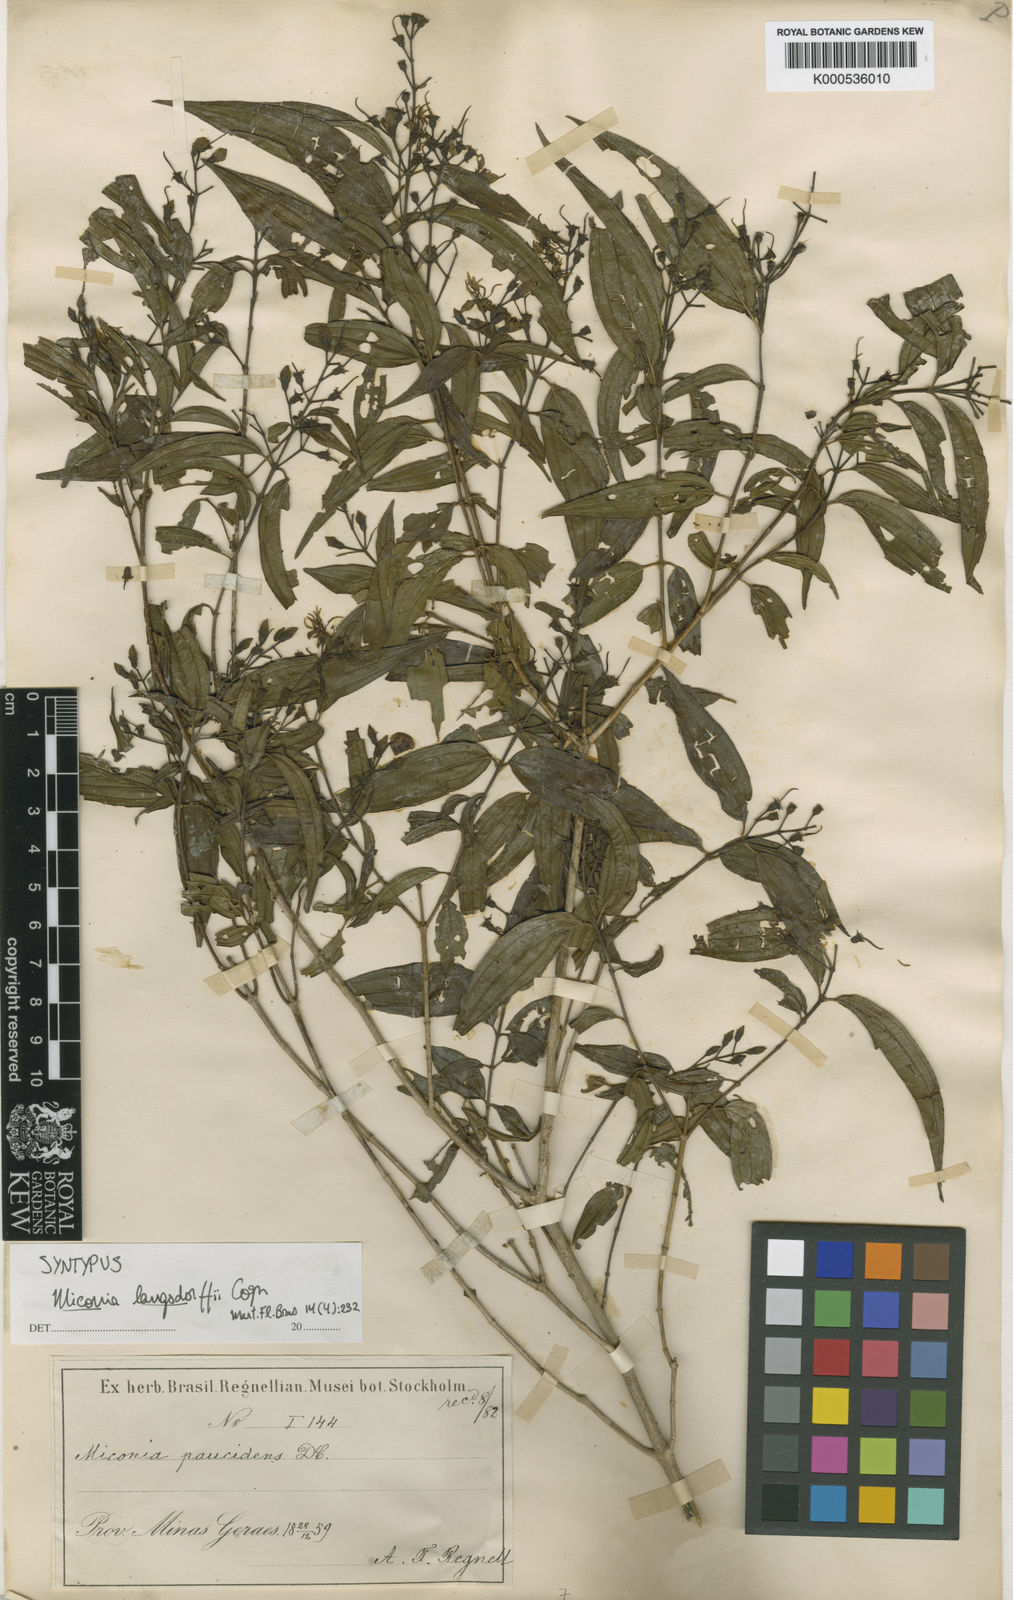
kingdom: Plantae
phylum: Tracheophyta
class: Magnoliopsida
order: Myrtales
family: Melastomataceae
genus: Miconia
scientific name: Miconia langsdorffii
